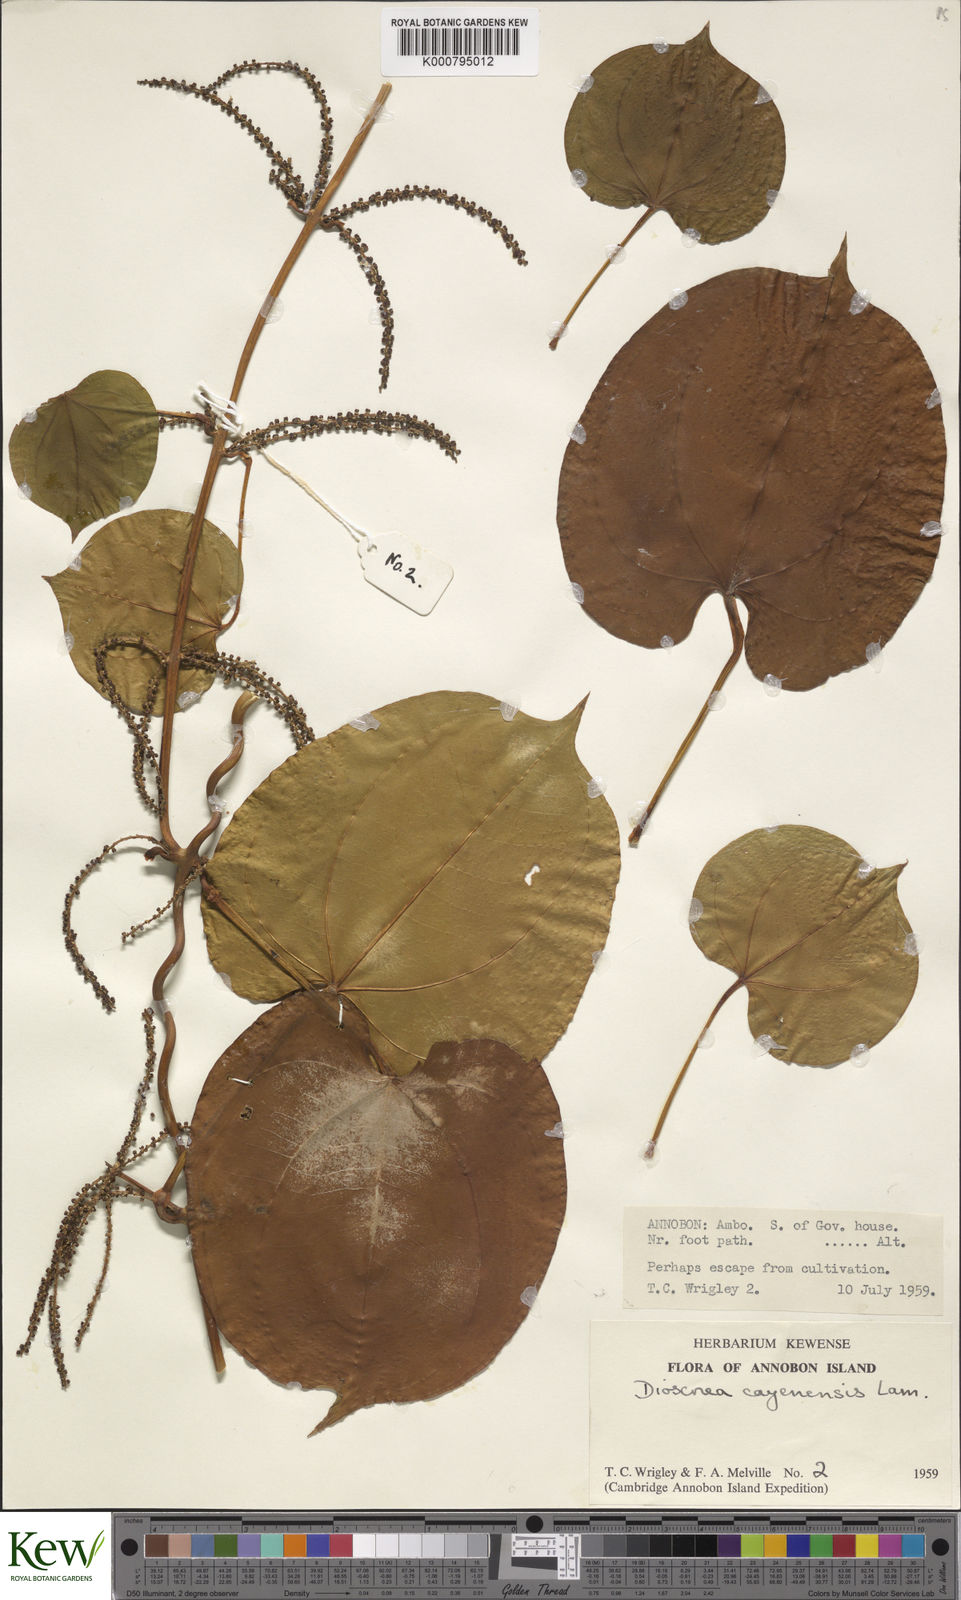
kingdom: Plantae
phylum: Tracheophyta
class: Liliopsida
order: Dioscoreales
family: Dioscoreaceae
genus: Dioscorea
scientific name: Dioscorea cayenensis
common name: Attoto yam
